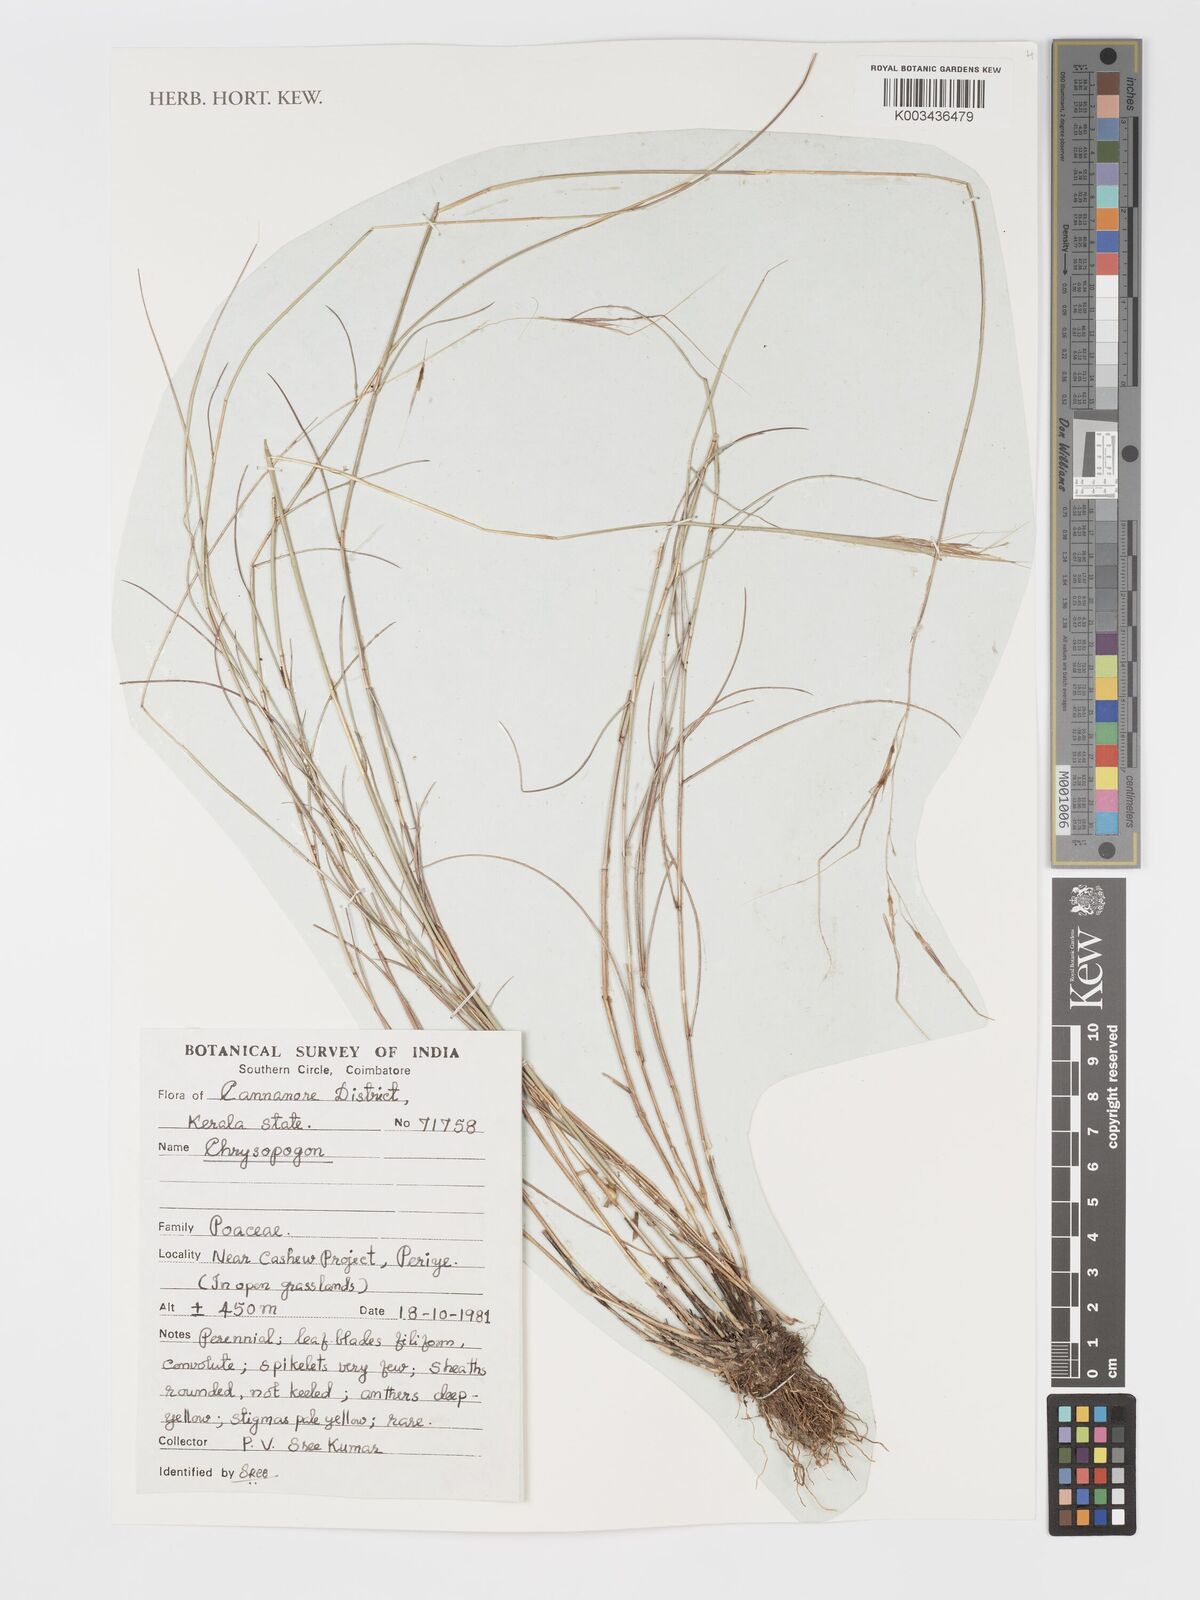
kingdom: Plantae
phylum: Tracheophyta
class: Liliopsida
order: Poales
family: Poaceae
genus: Chrysopogon
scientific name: Chrysopogon
